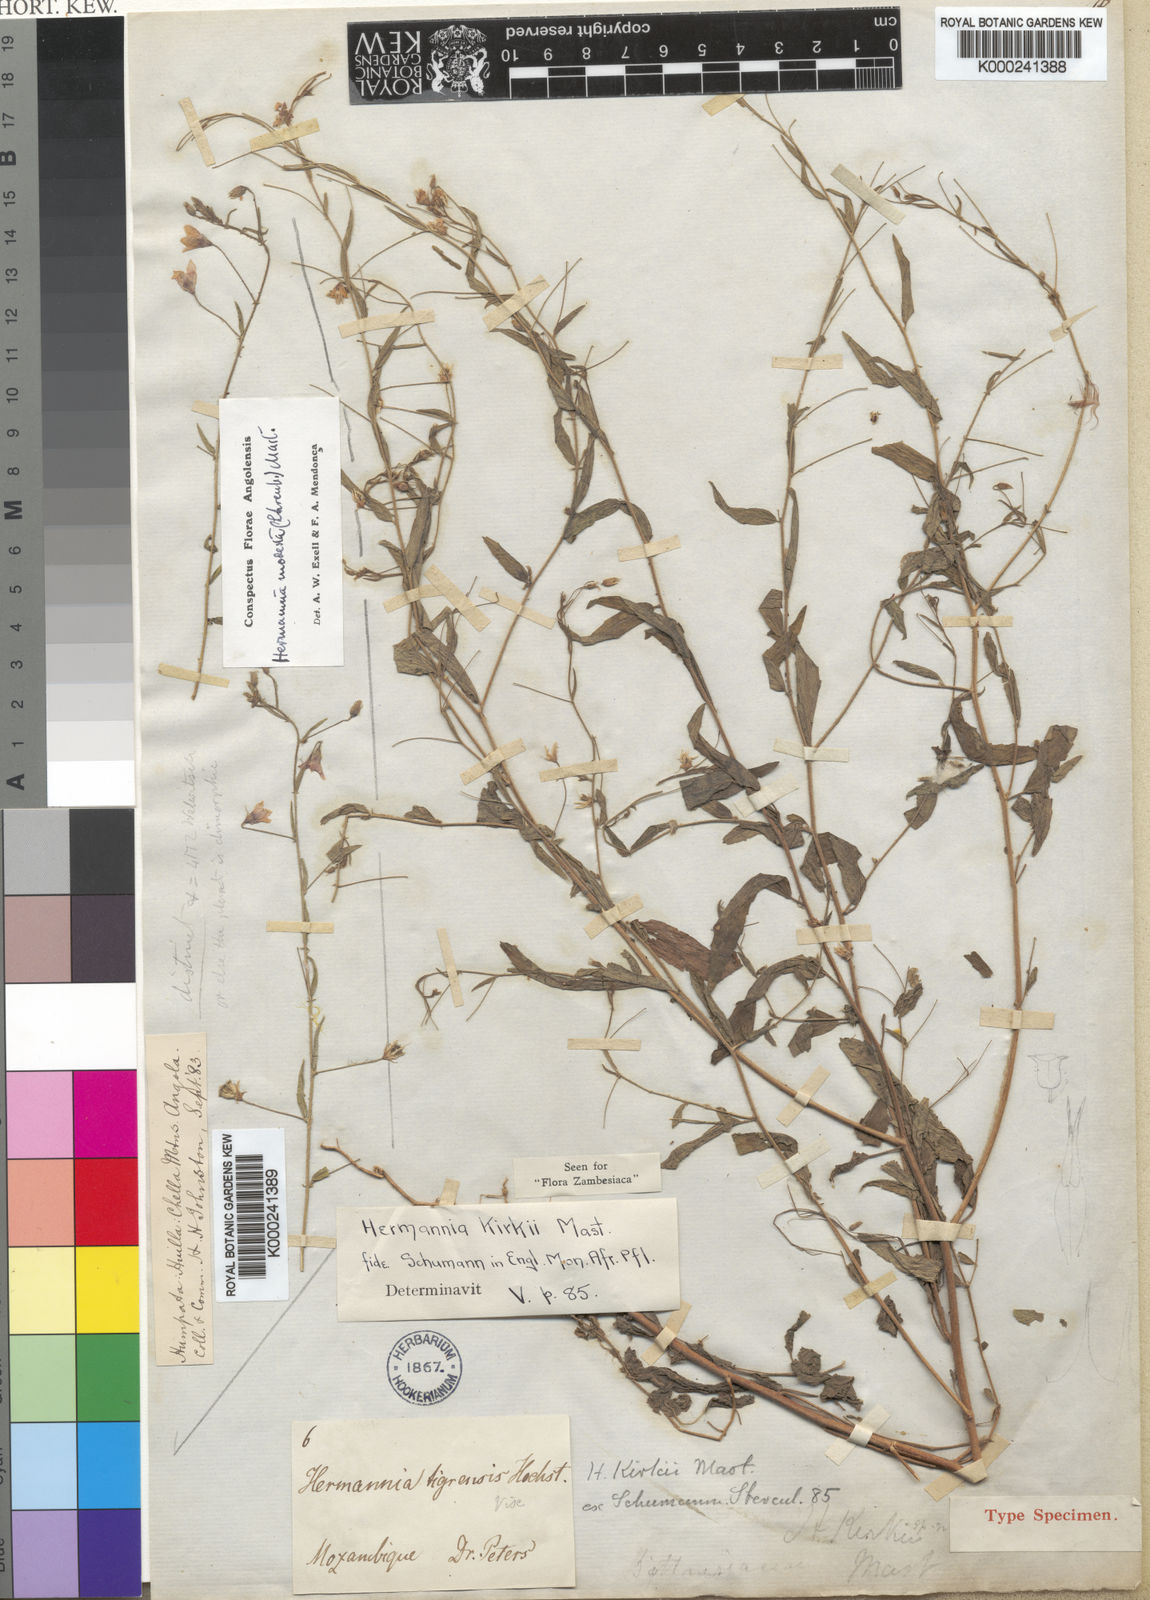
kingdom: Plantae
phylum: Tracheophyta
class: Magnoliopsida
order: Malvales
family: Malvaceae
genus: Hermannia
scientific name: Hermannia modesta
